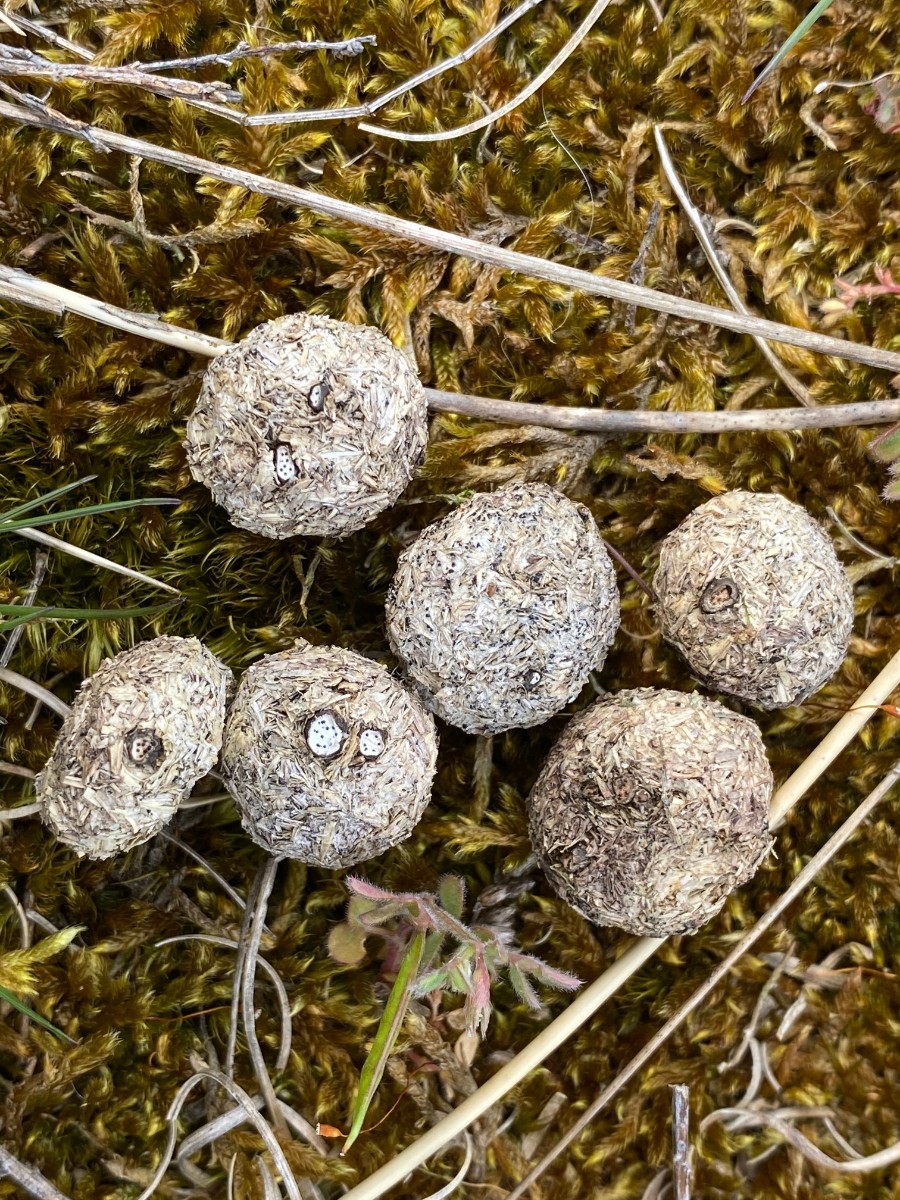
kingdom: Fungi
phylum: Ascomycota
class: Sordariomycetes
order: Xylariales
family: Xylariaceae
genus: Poronia
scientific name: Poronia erici
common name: hare-priksvamp
